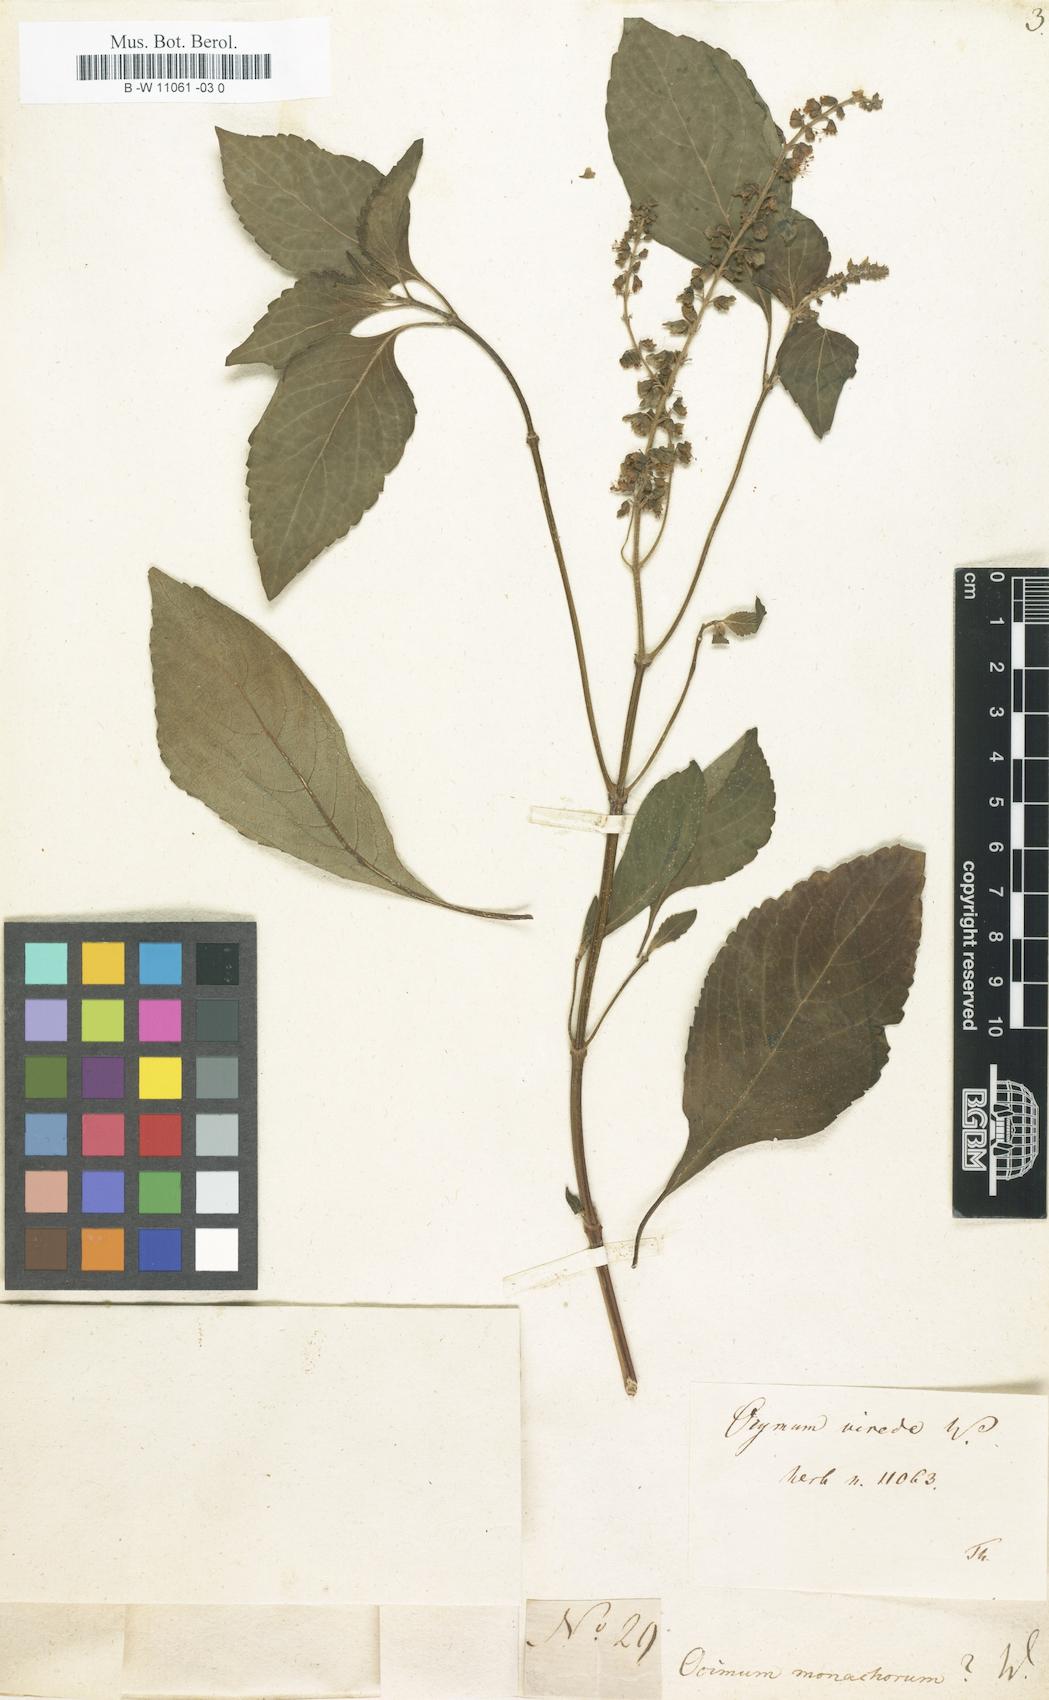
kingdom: Plantae
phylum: Tracheophyta
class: Magnoliopsida
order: Lamiales
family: Lamiaceae
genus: Ocimum
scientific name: Ocimum tenuiflorum
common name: Sacred basil
